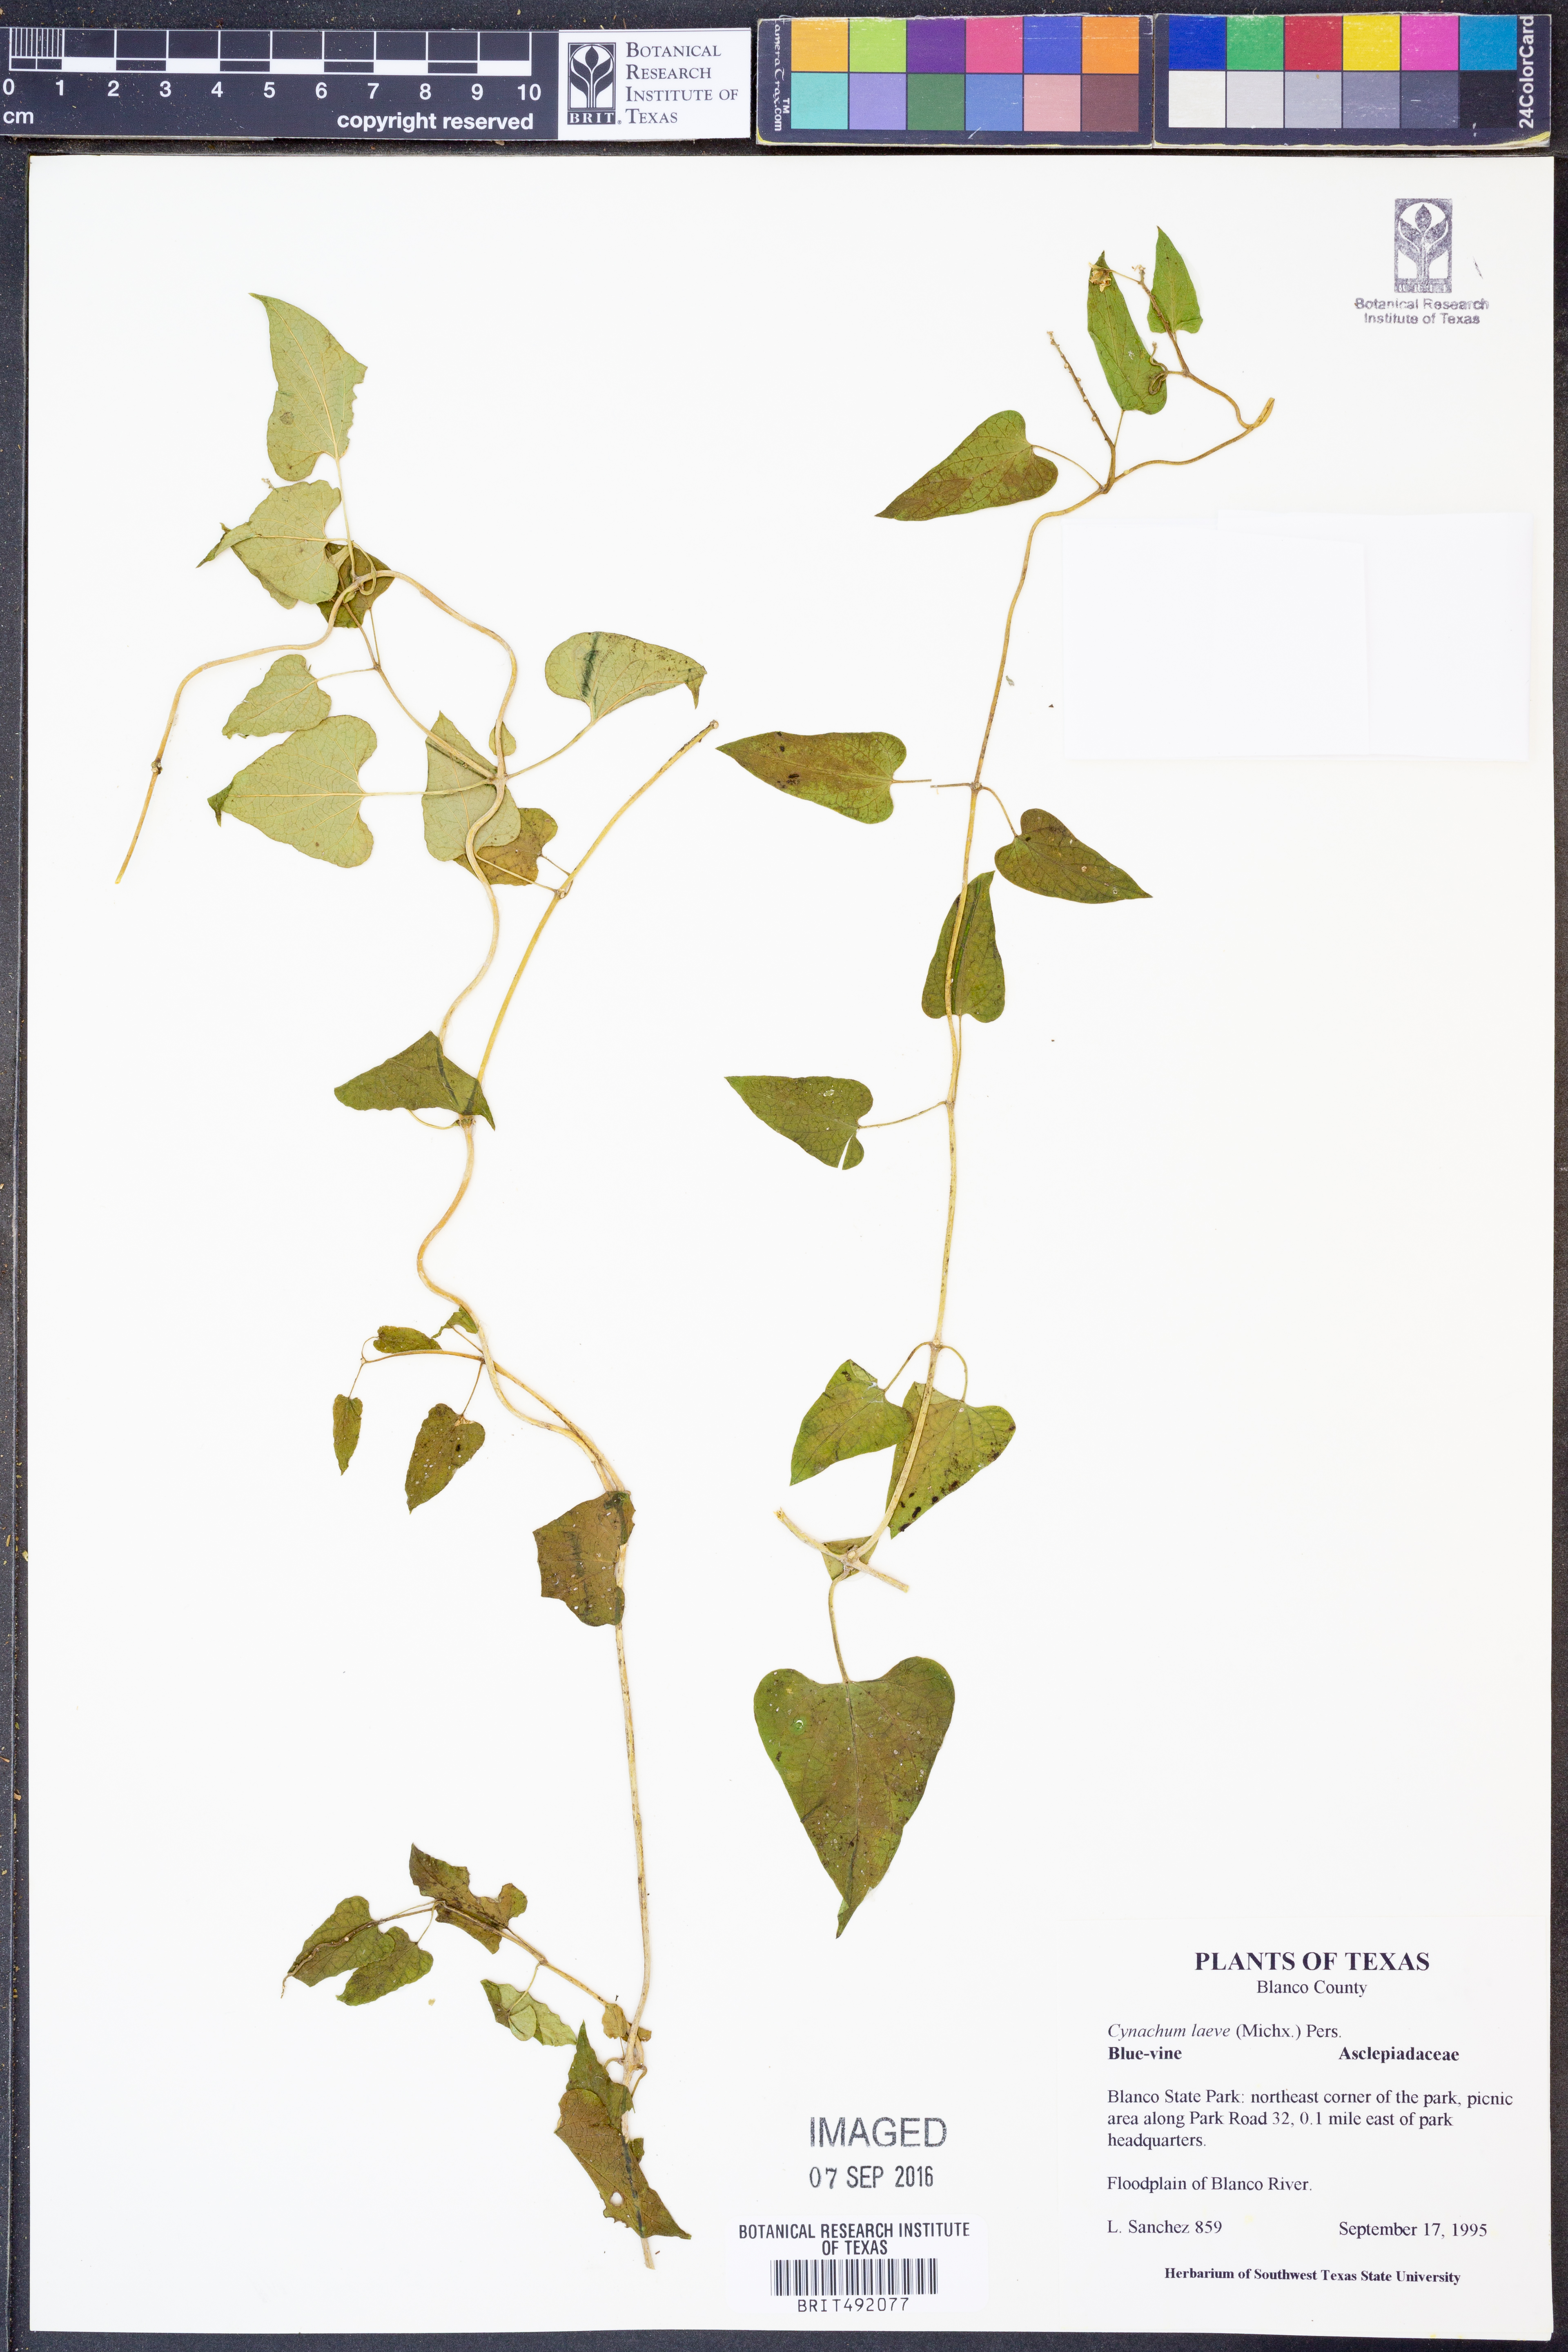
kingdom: Plantae
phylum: Tracheophyta
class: Magnoliopsida
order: Gentianales
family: Apocynaceae
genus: Cynanchum
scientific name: Cynanchum laeve
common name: Sandvine
